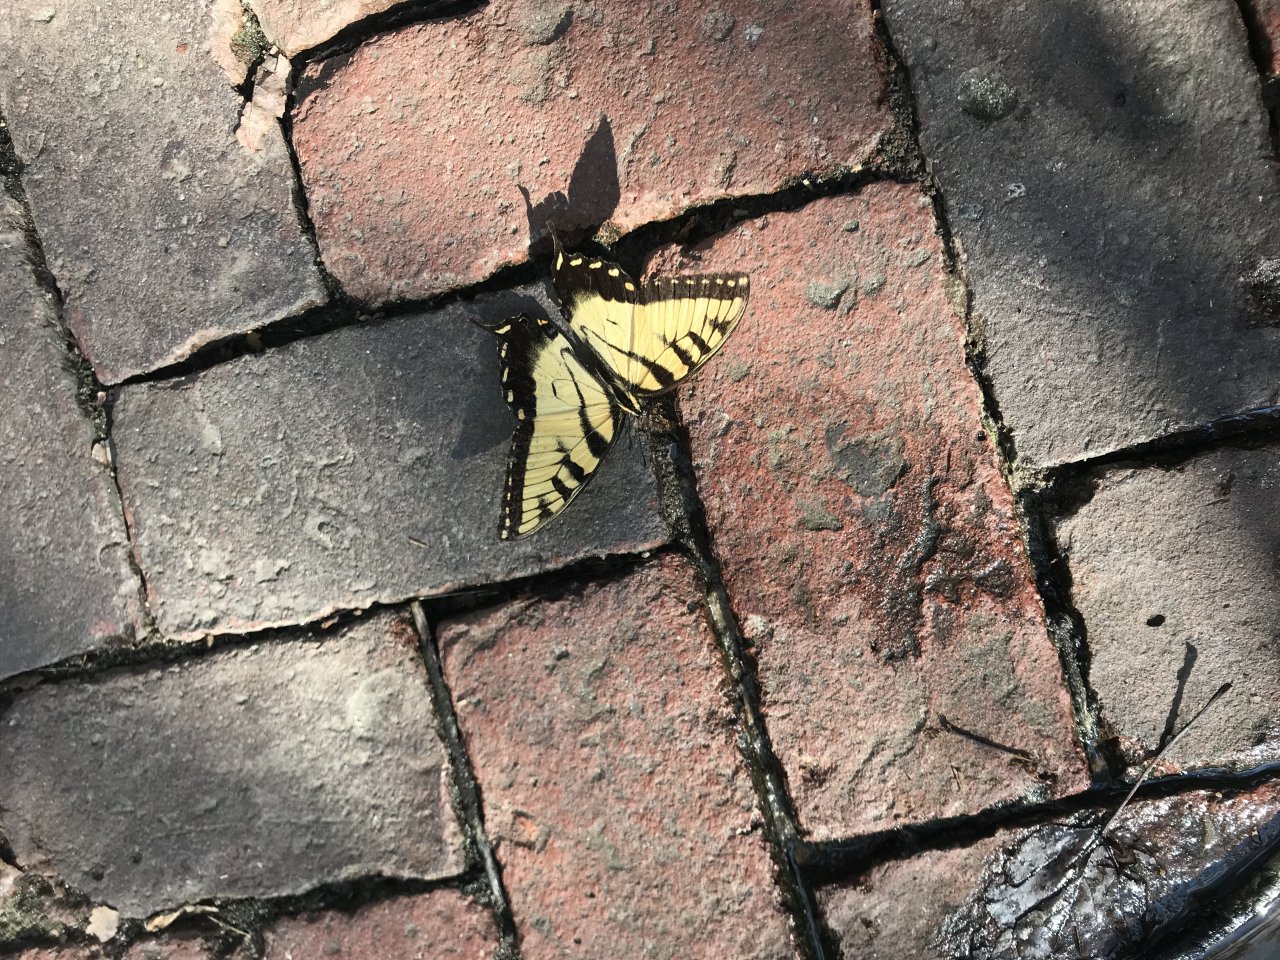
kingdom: Animalia
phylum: Arthropoda
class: Insecta
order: Lepidoptera
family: Papilionidae
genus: Pterourus
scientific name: Pterourus glaucus
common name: Eastern Tiger Swallowtail
